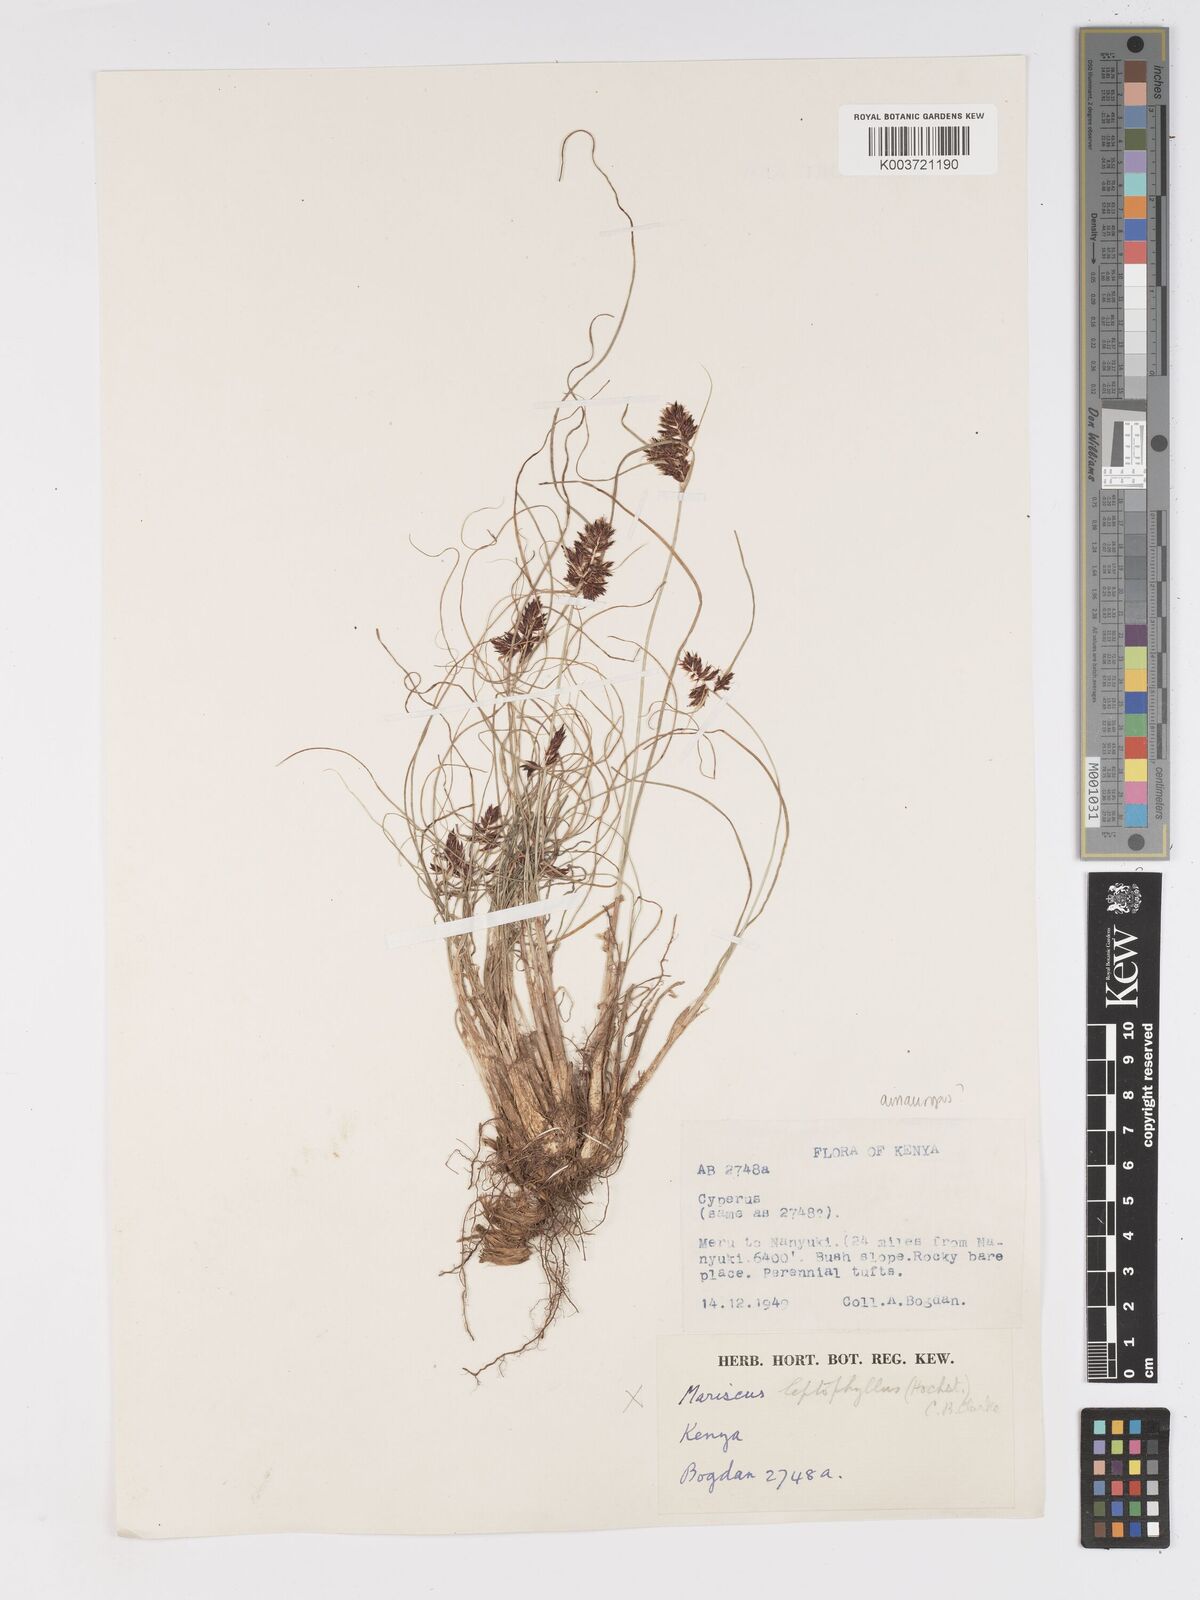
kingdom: Plantae
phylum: Tracheophyta
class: Liliopsida
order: Poales
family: Cyperaceae
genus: Cyperus
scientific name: Cyperus amauropus
